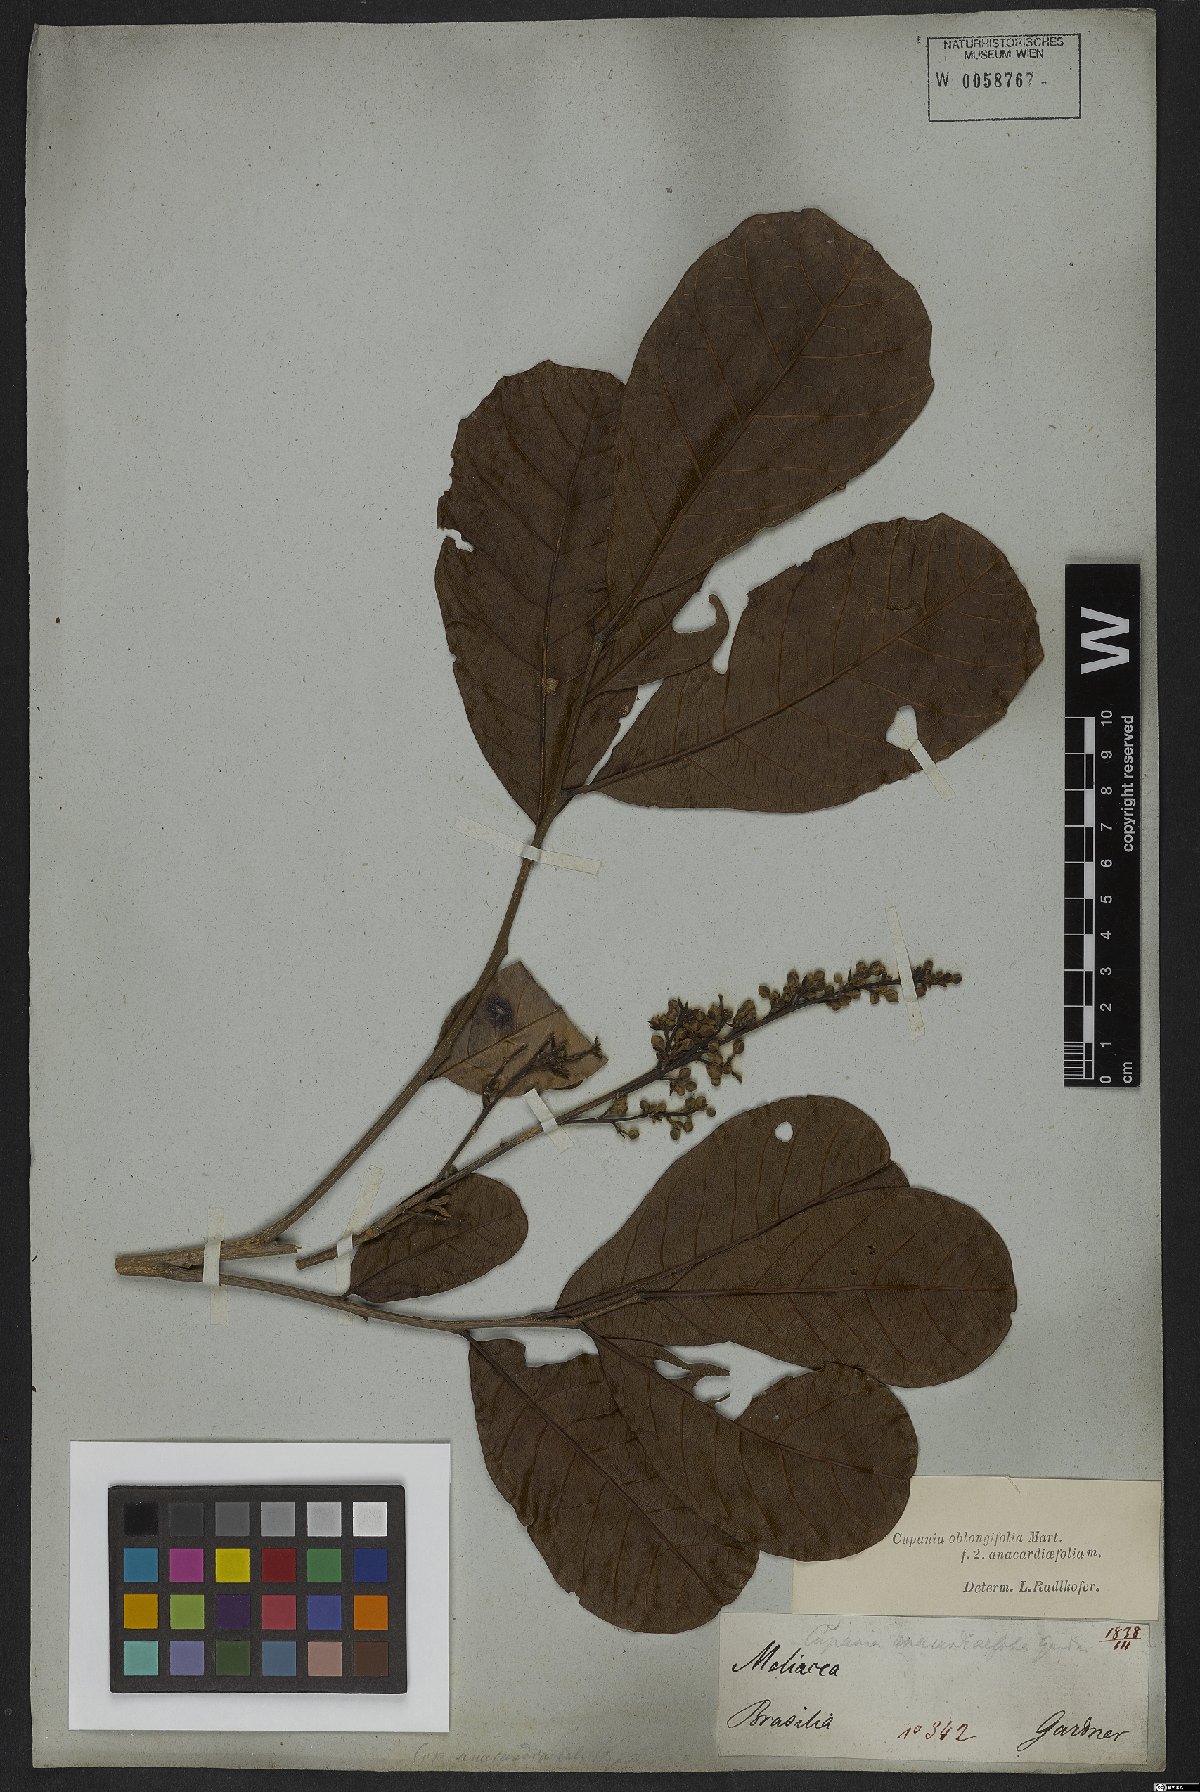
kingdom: Plantae
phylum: Tracheophyta
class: Magnoliopsida
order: Sapindales
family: Sapindaceae
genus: Cupania
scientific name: Cupania oblongifolia
